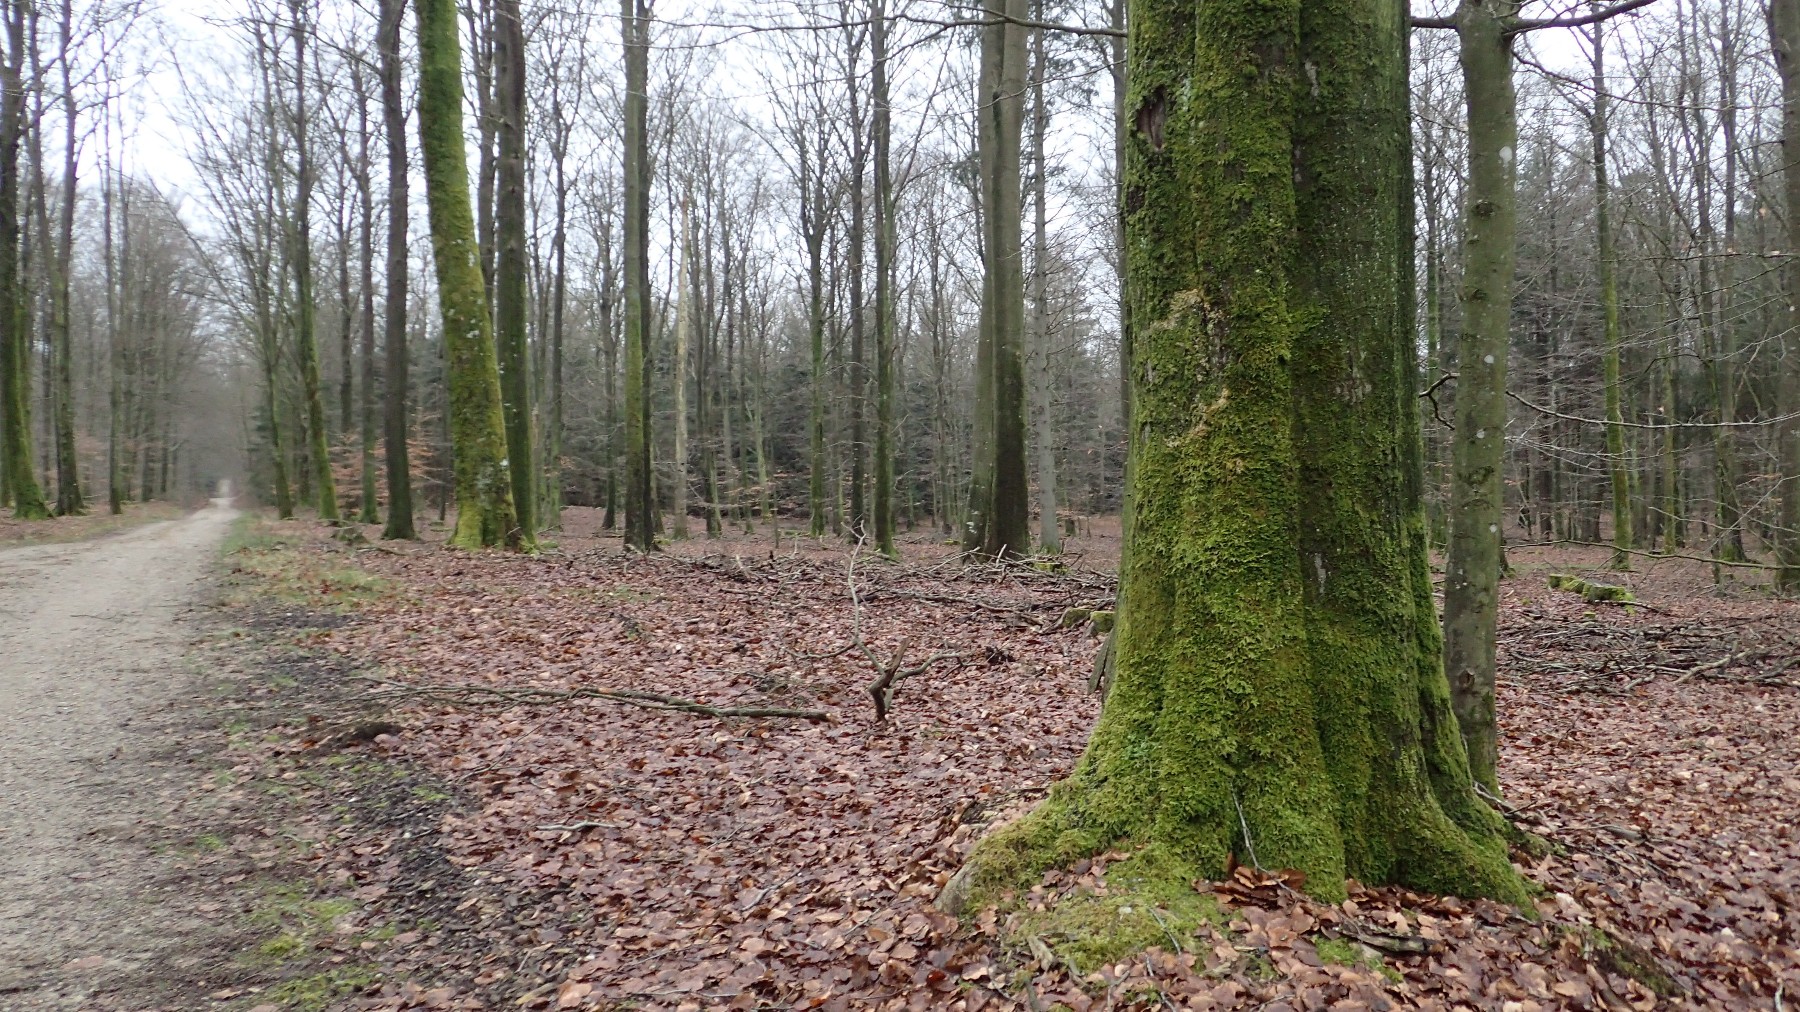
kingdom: Fungi
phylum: Basidiomycota
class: Agaricomycetes
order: Agaricales
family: Chromocyphellaceae
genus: Chromocyphella
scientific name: Chromocyphella muscicola
